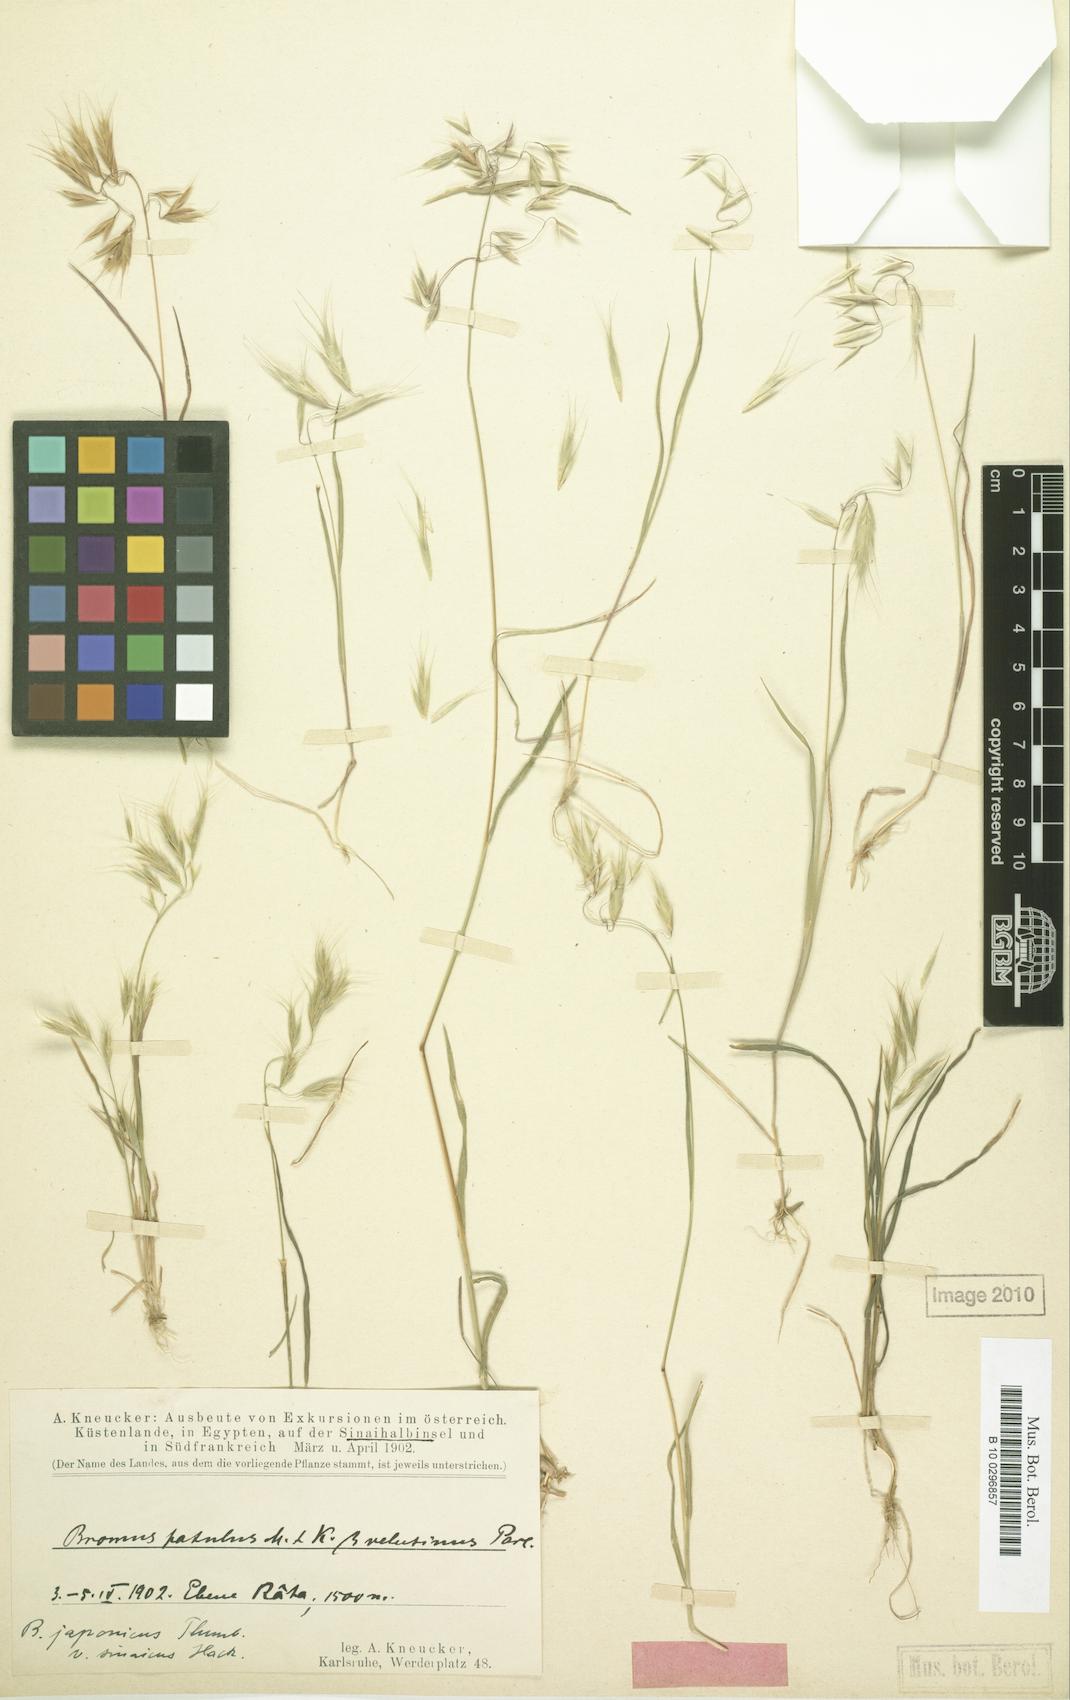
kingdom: Plantae
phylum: Tracheophyta
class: Liliopsida
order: Poales
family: Poaceae
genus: Bromus
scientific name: Bromus pulchellus
